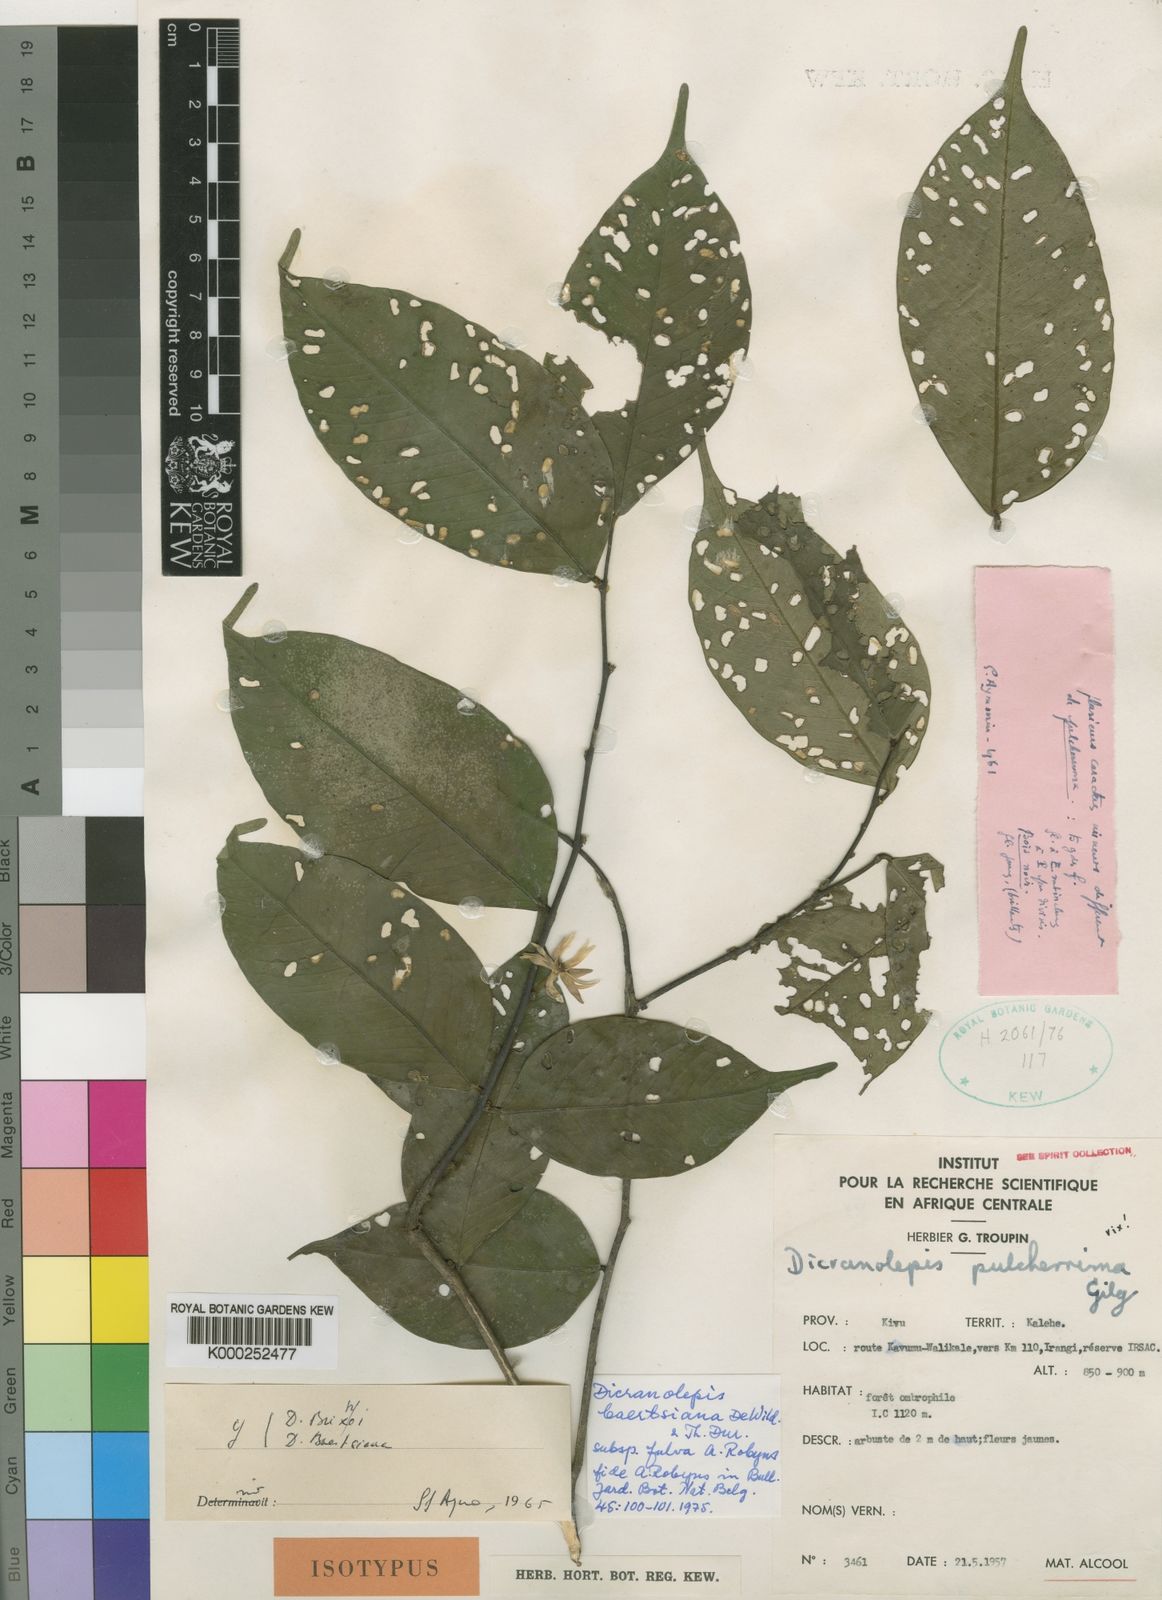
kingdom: Plantae
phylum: Tracheophyta
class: Magnoliopsida
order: Malvales
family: Thymelaeaceae
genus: Dicranolepis
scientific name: Dicranolepis baertsiana
